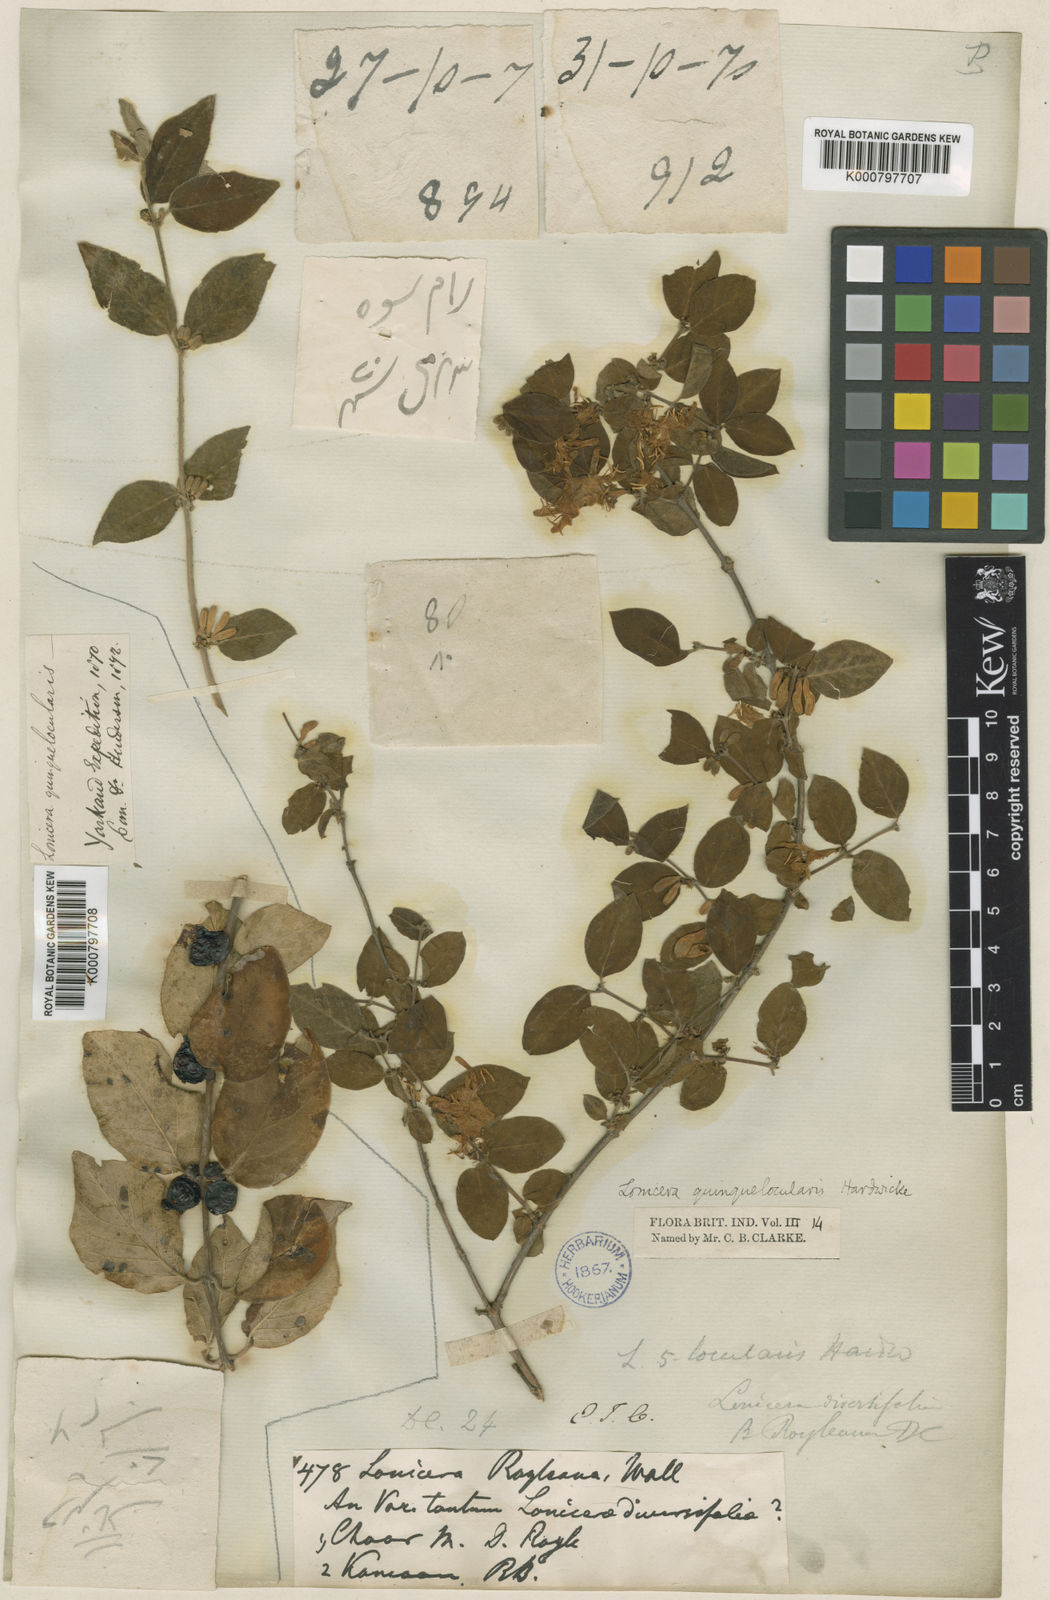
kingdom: Plantae
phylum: Tracheophyta
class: Magnoliopsida
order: Dipsacales
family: Caprifoliaceae
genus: Lonicera
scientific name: Lonicera quinquelocularis
